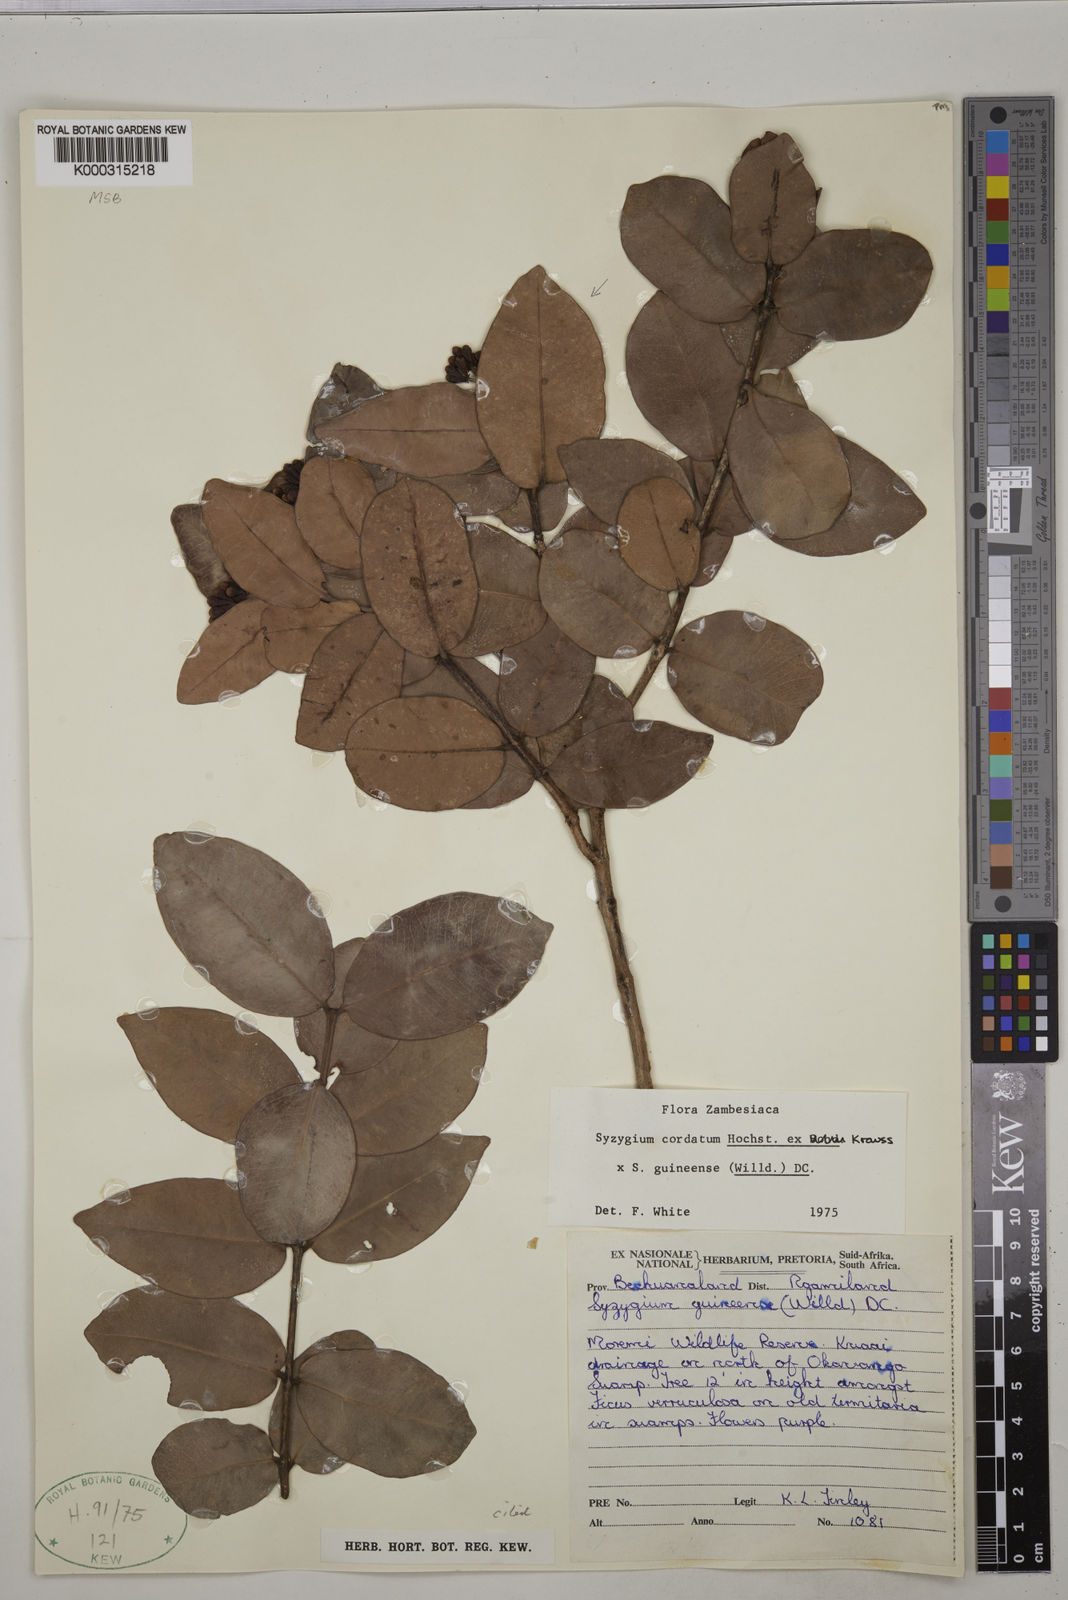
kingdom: Plantae
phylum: Tracheophyta
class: Magnoliopsida
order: Myrtales
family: Myrtaceae
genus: Syzygium
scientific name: Syzygium
